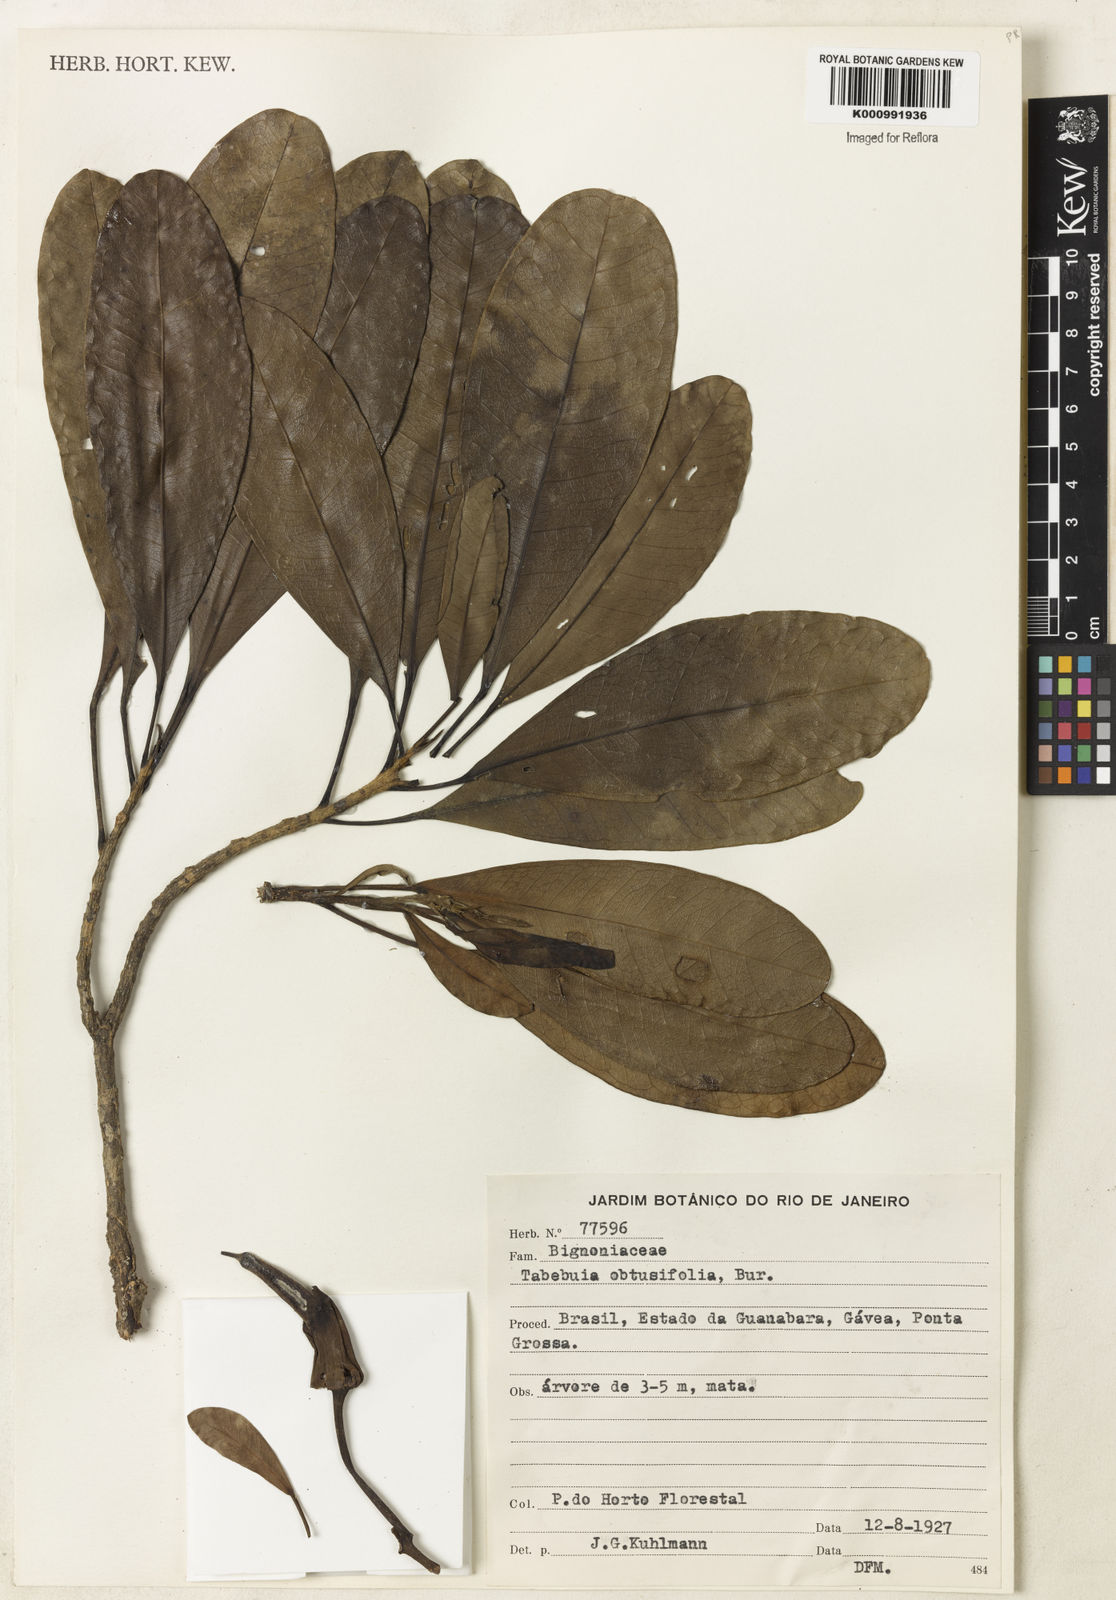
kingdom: Plantae
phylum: Tracheophyta
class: Magnoliopsida
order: Lamiales
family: Bignoniaceae
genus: Tabebuia
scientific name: Tabebuia obtusifolia
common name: Guadeloupe trumpet-tree
